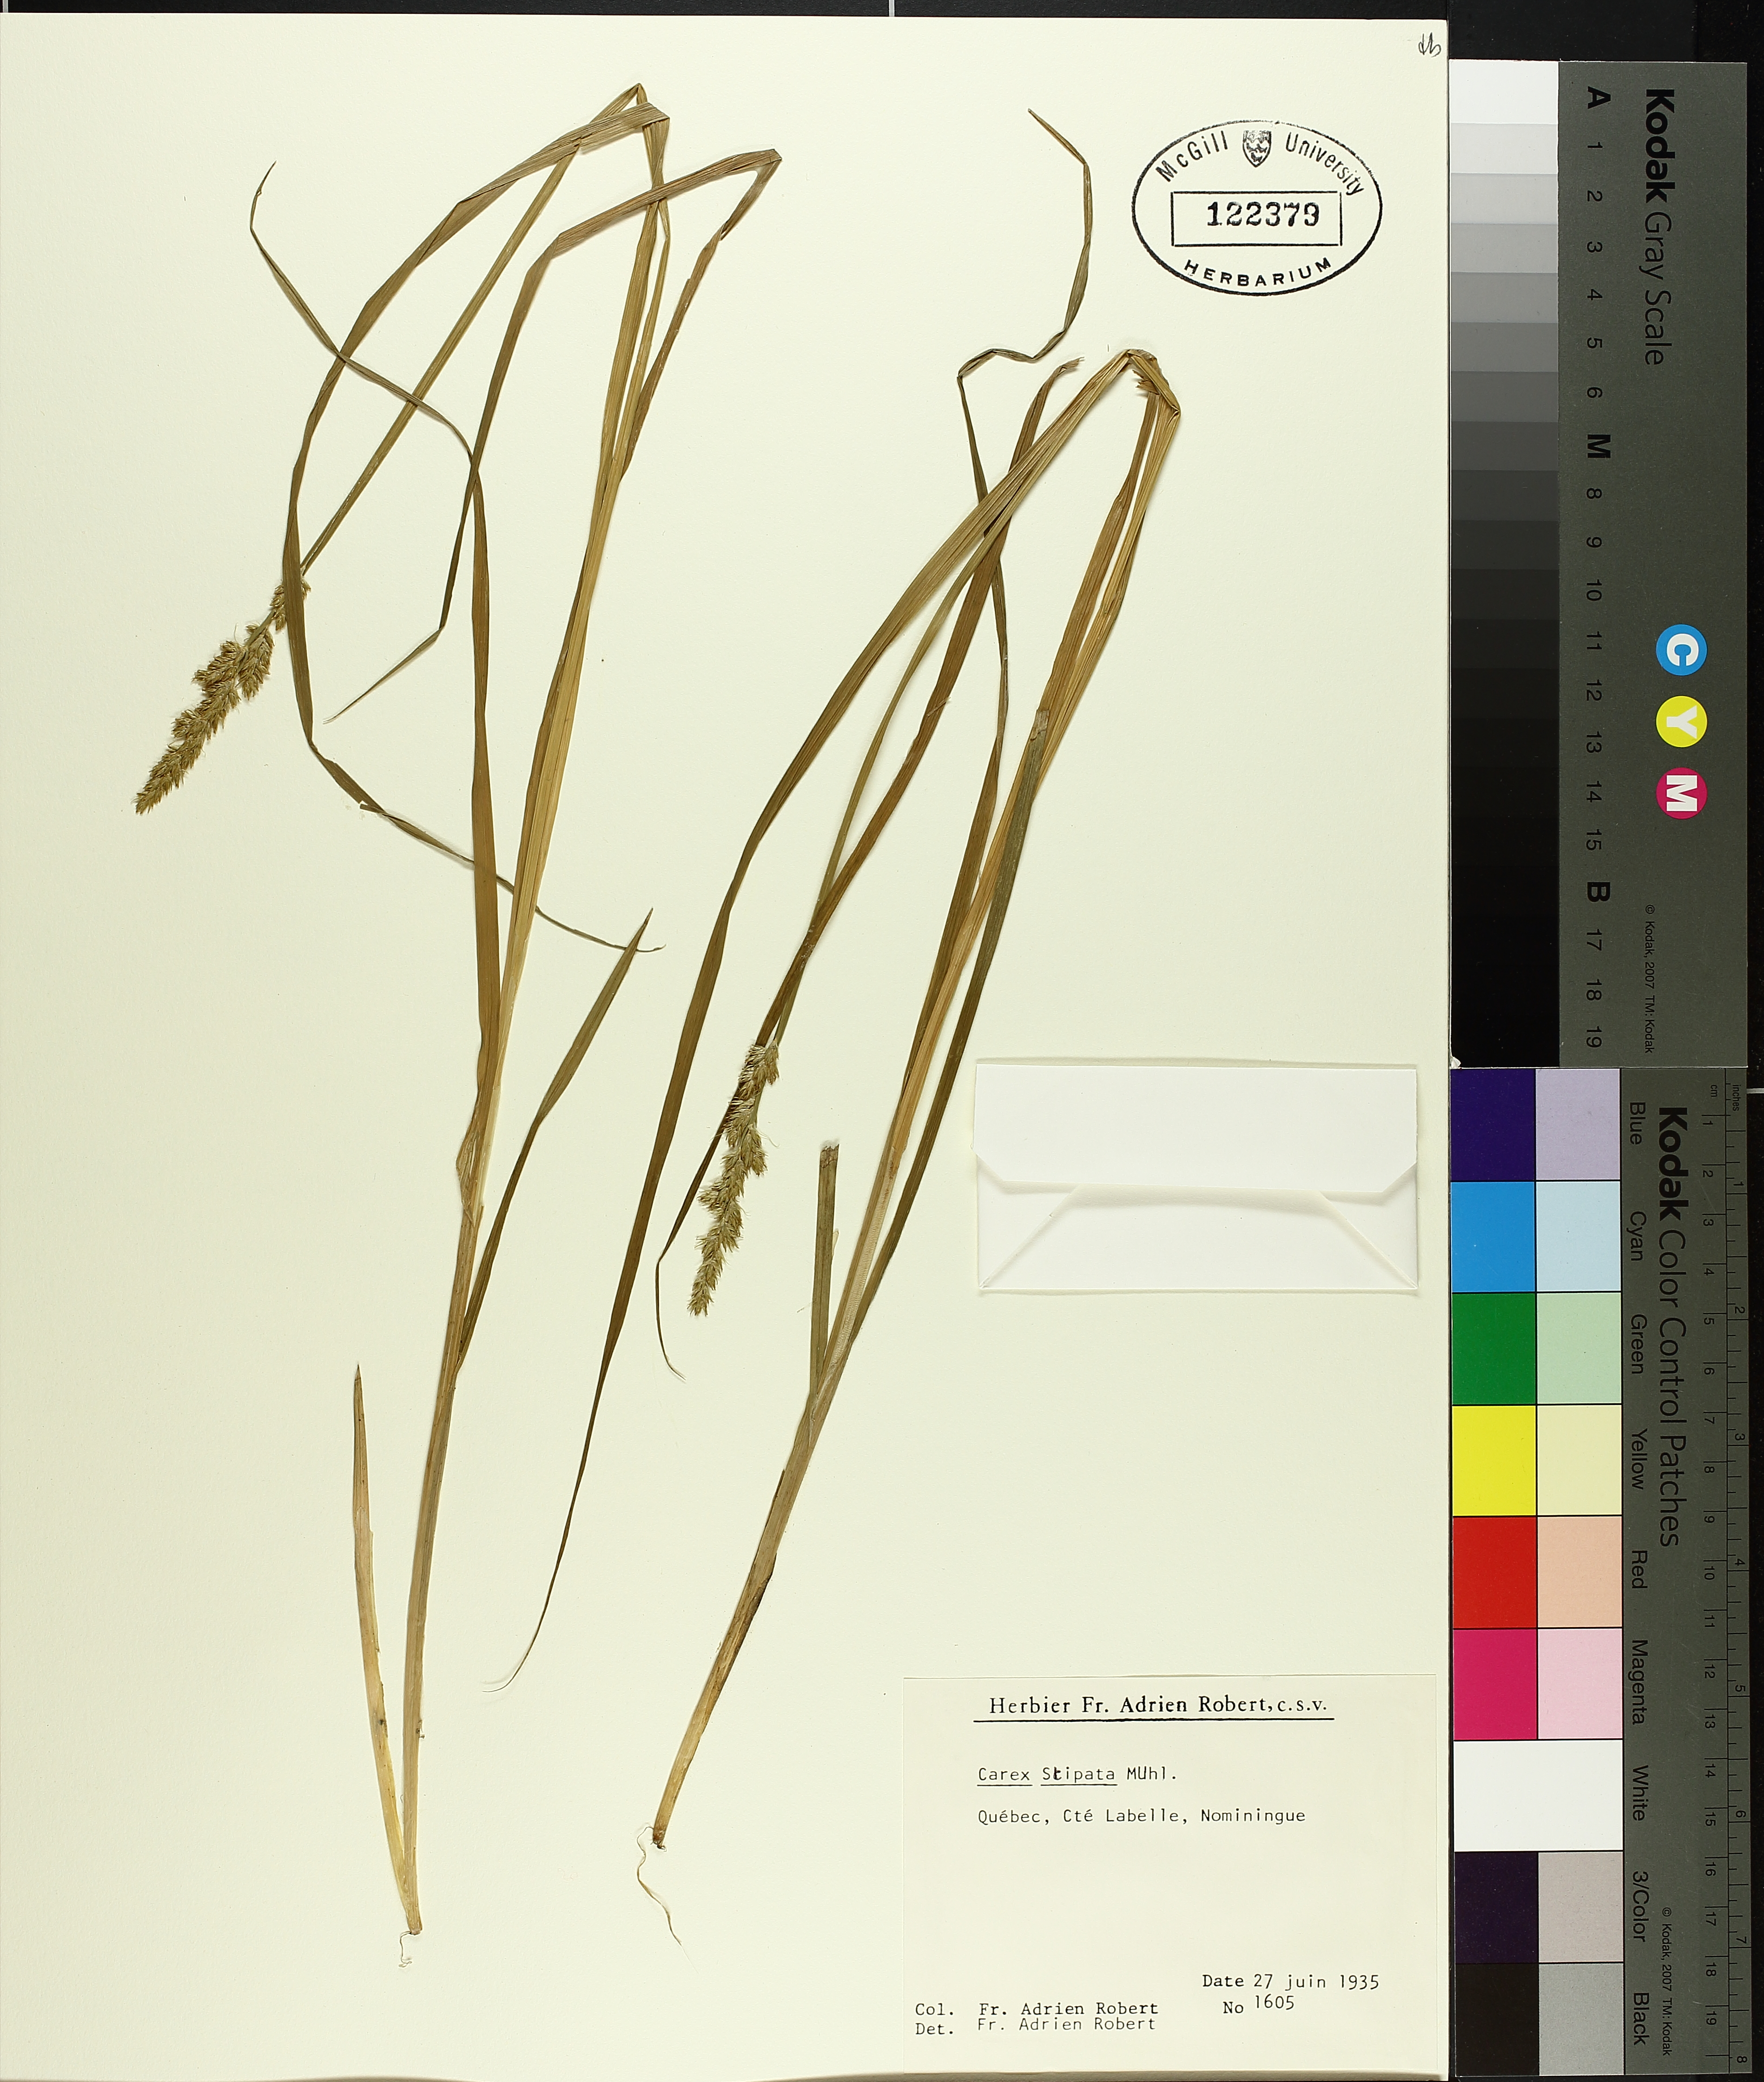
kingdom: Plantae
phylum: Tracheophyta
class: Liliopsida
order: Poales
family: Cyperaceae
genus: Carex
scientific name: Carex stipata
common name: Awl-fruited sedge
